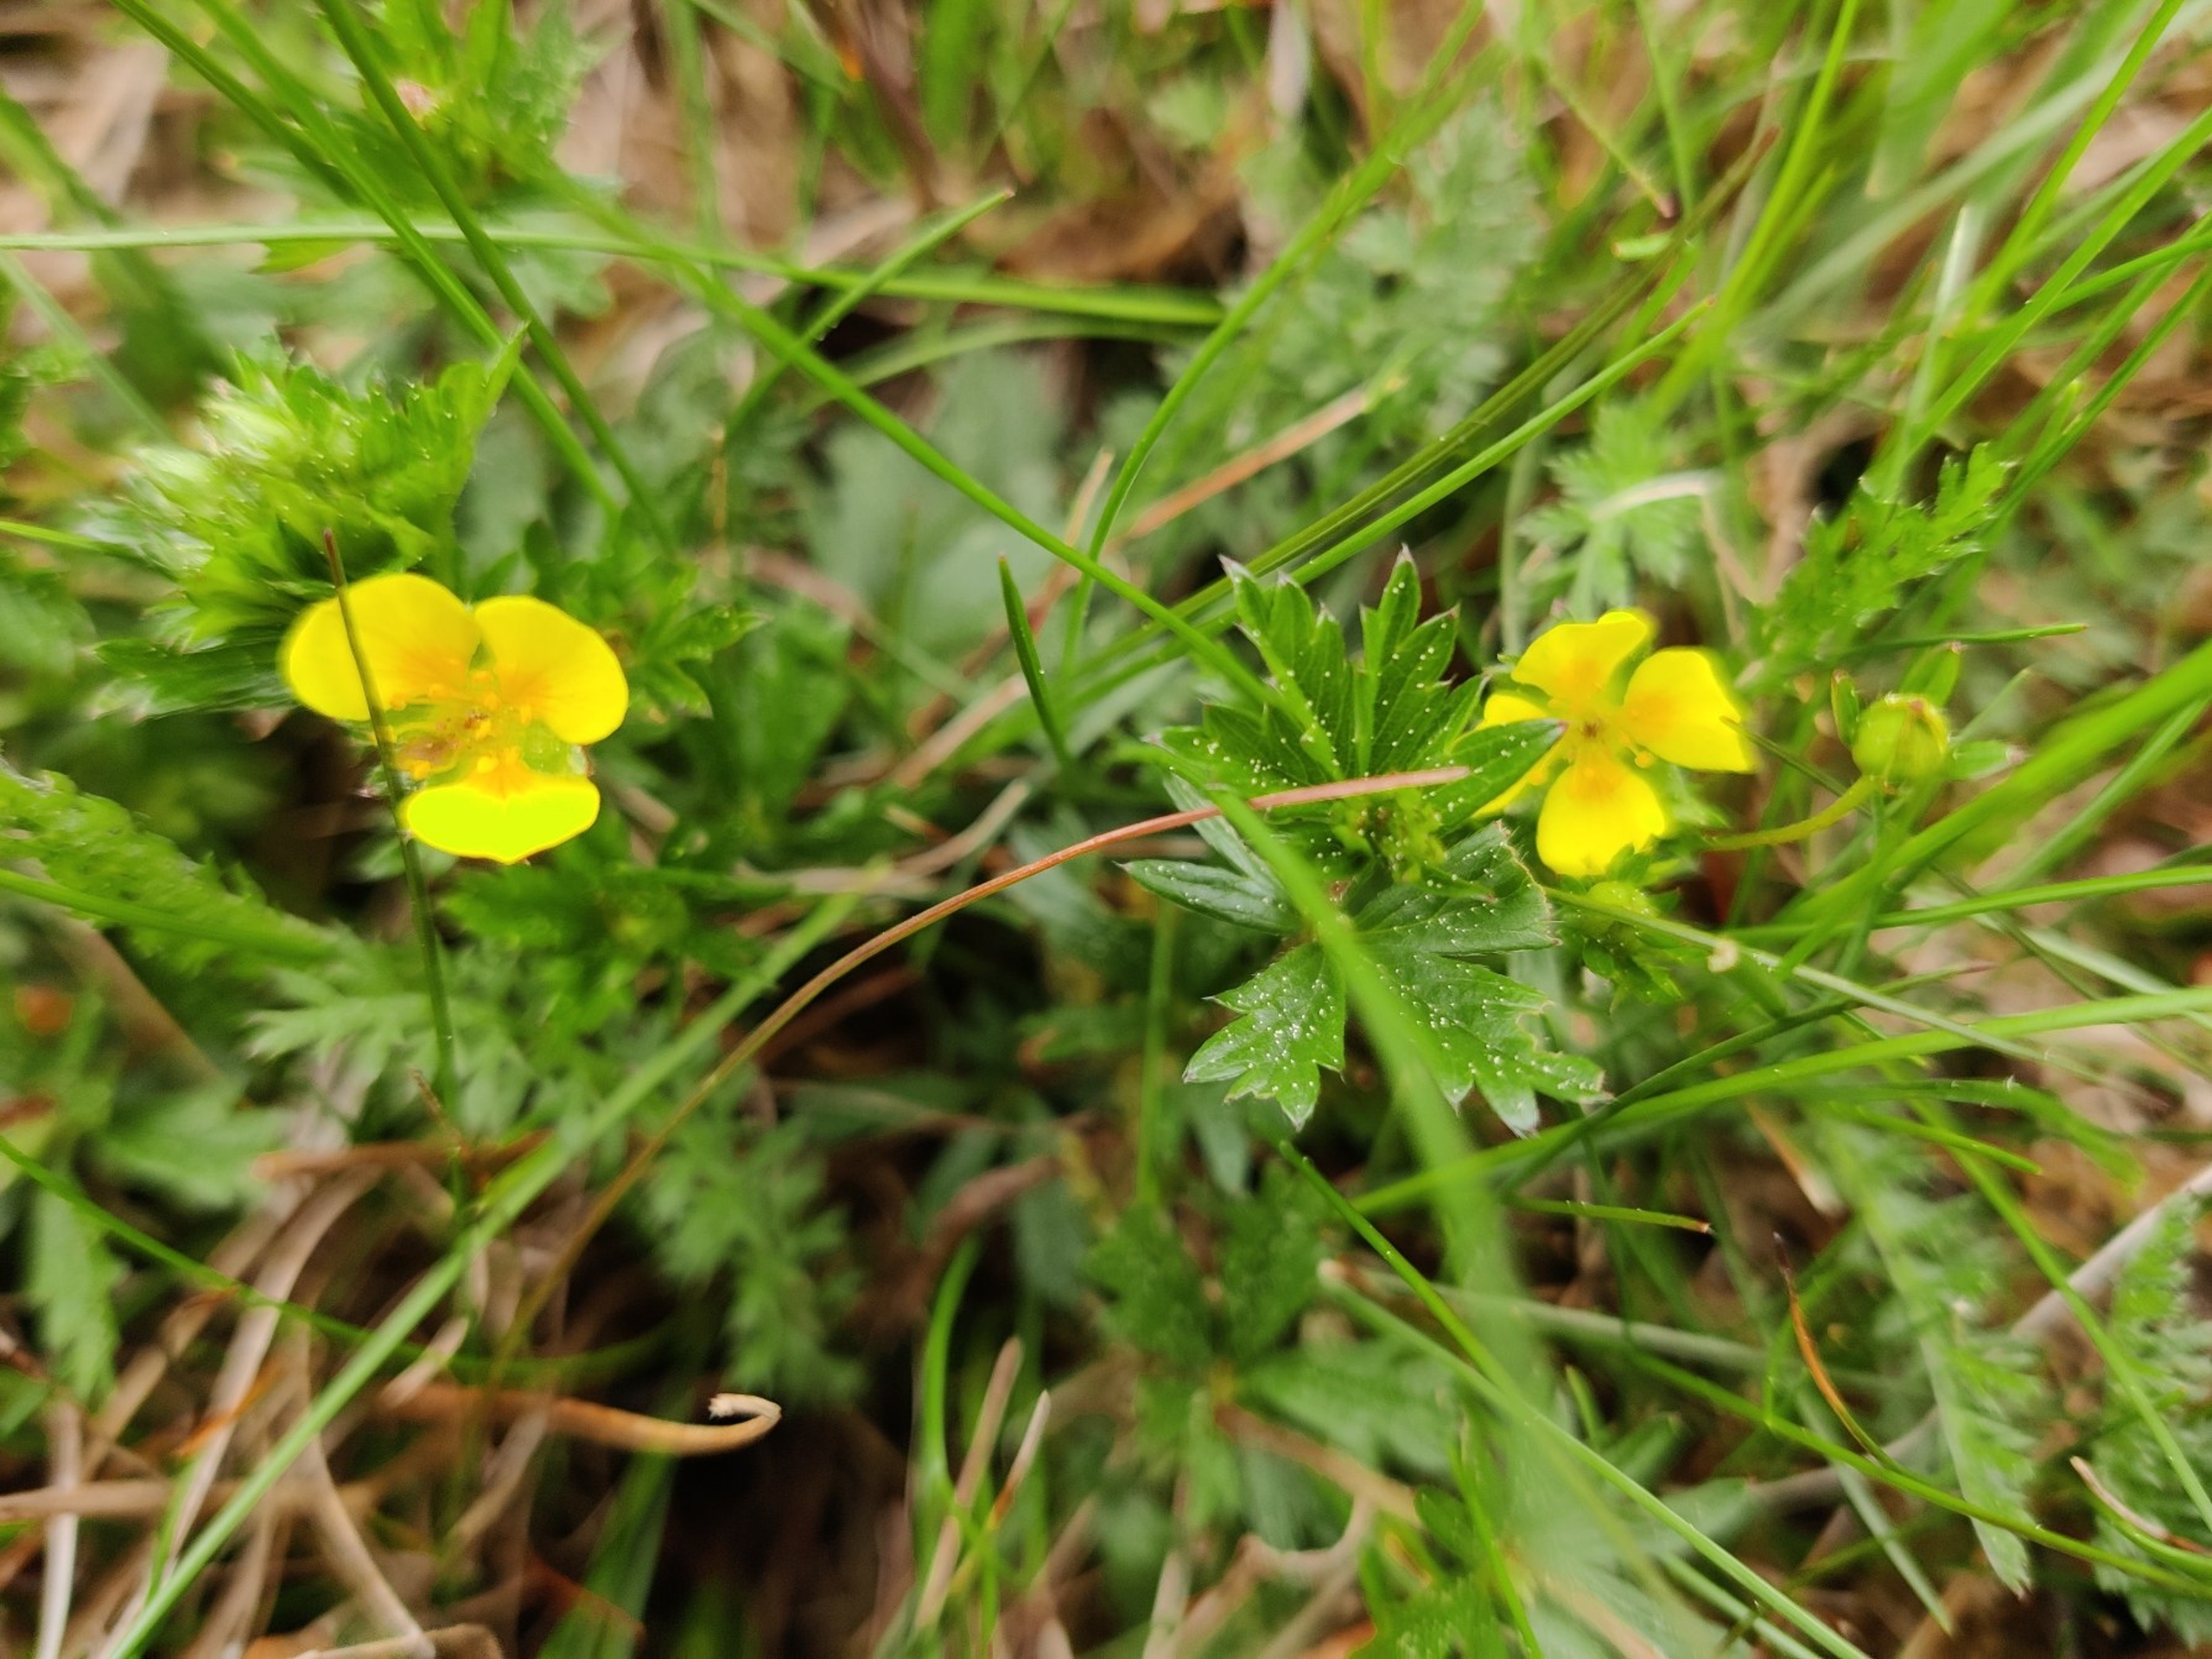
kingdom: Plantae
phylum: Tracheophyta
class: Magnoliopsida
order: Rosales
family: Rosaceae
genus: Potentilla
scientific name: Potentilla erecta
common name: Tormentil
